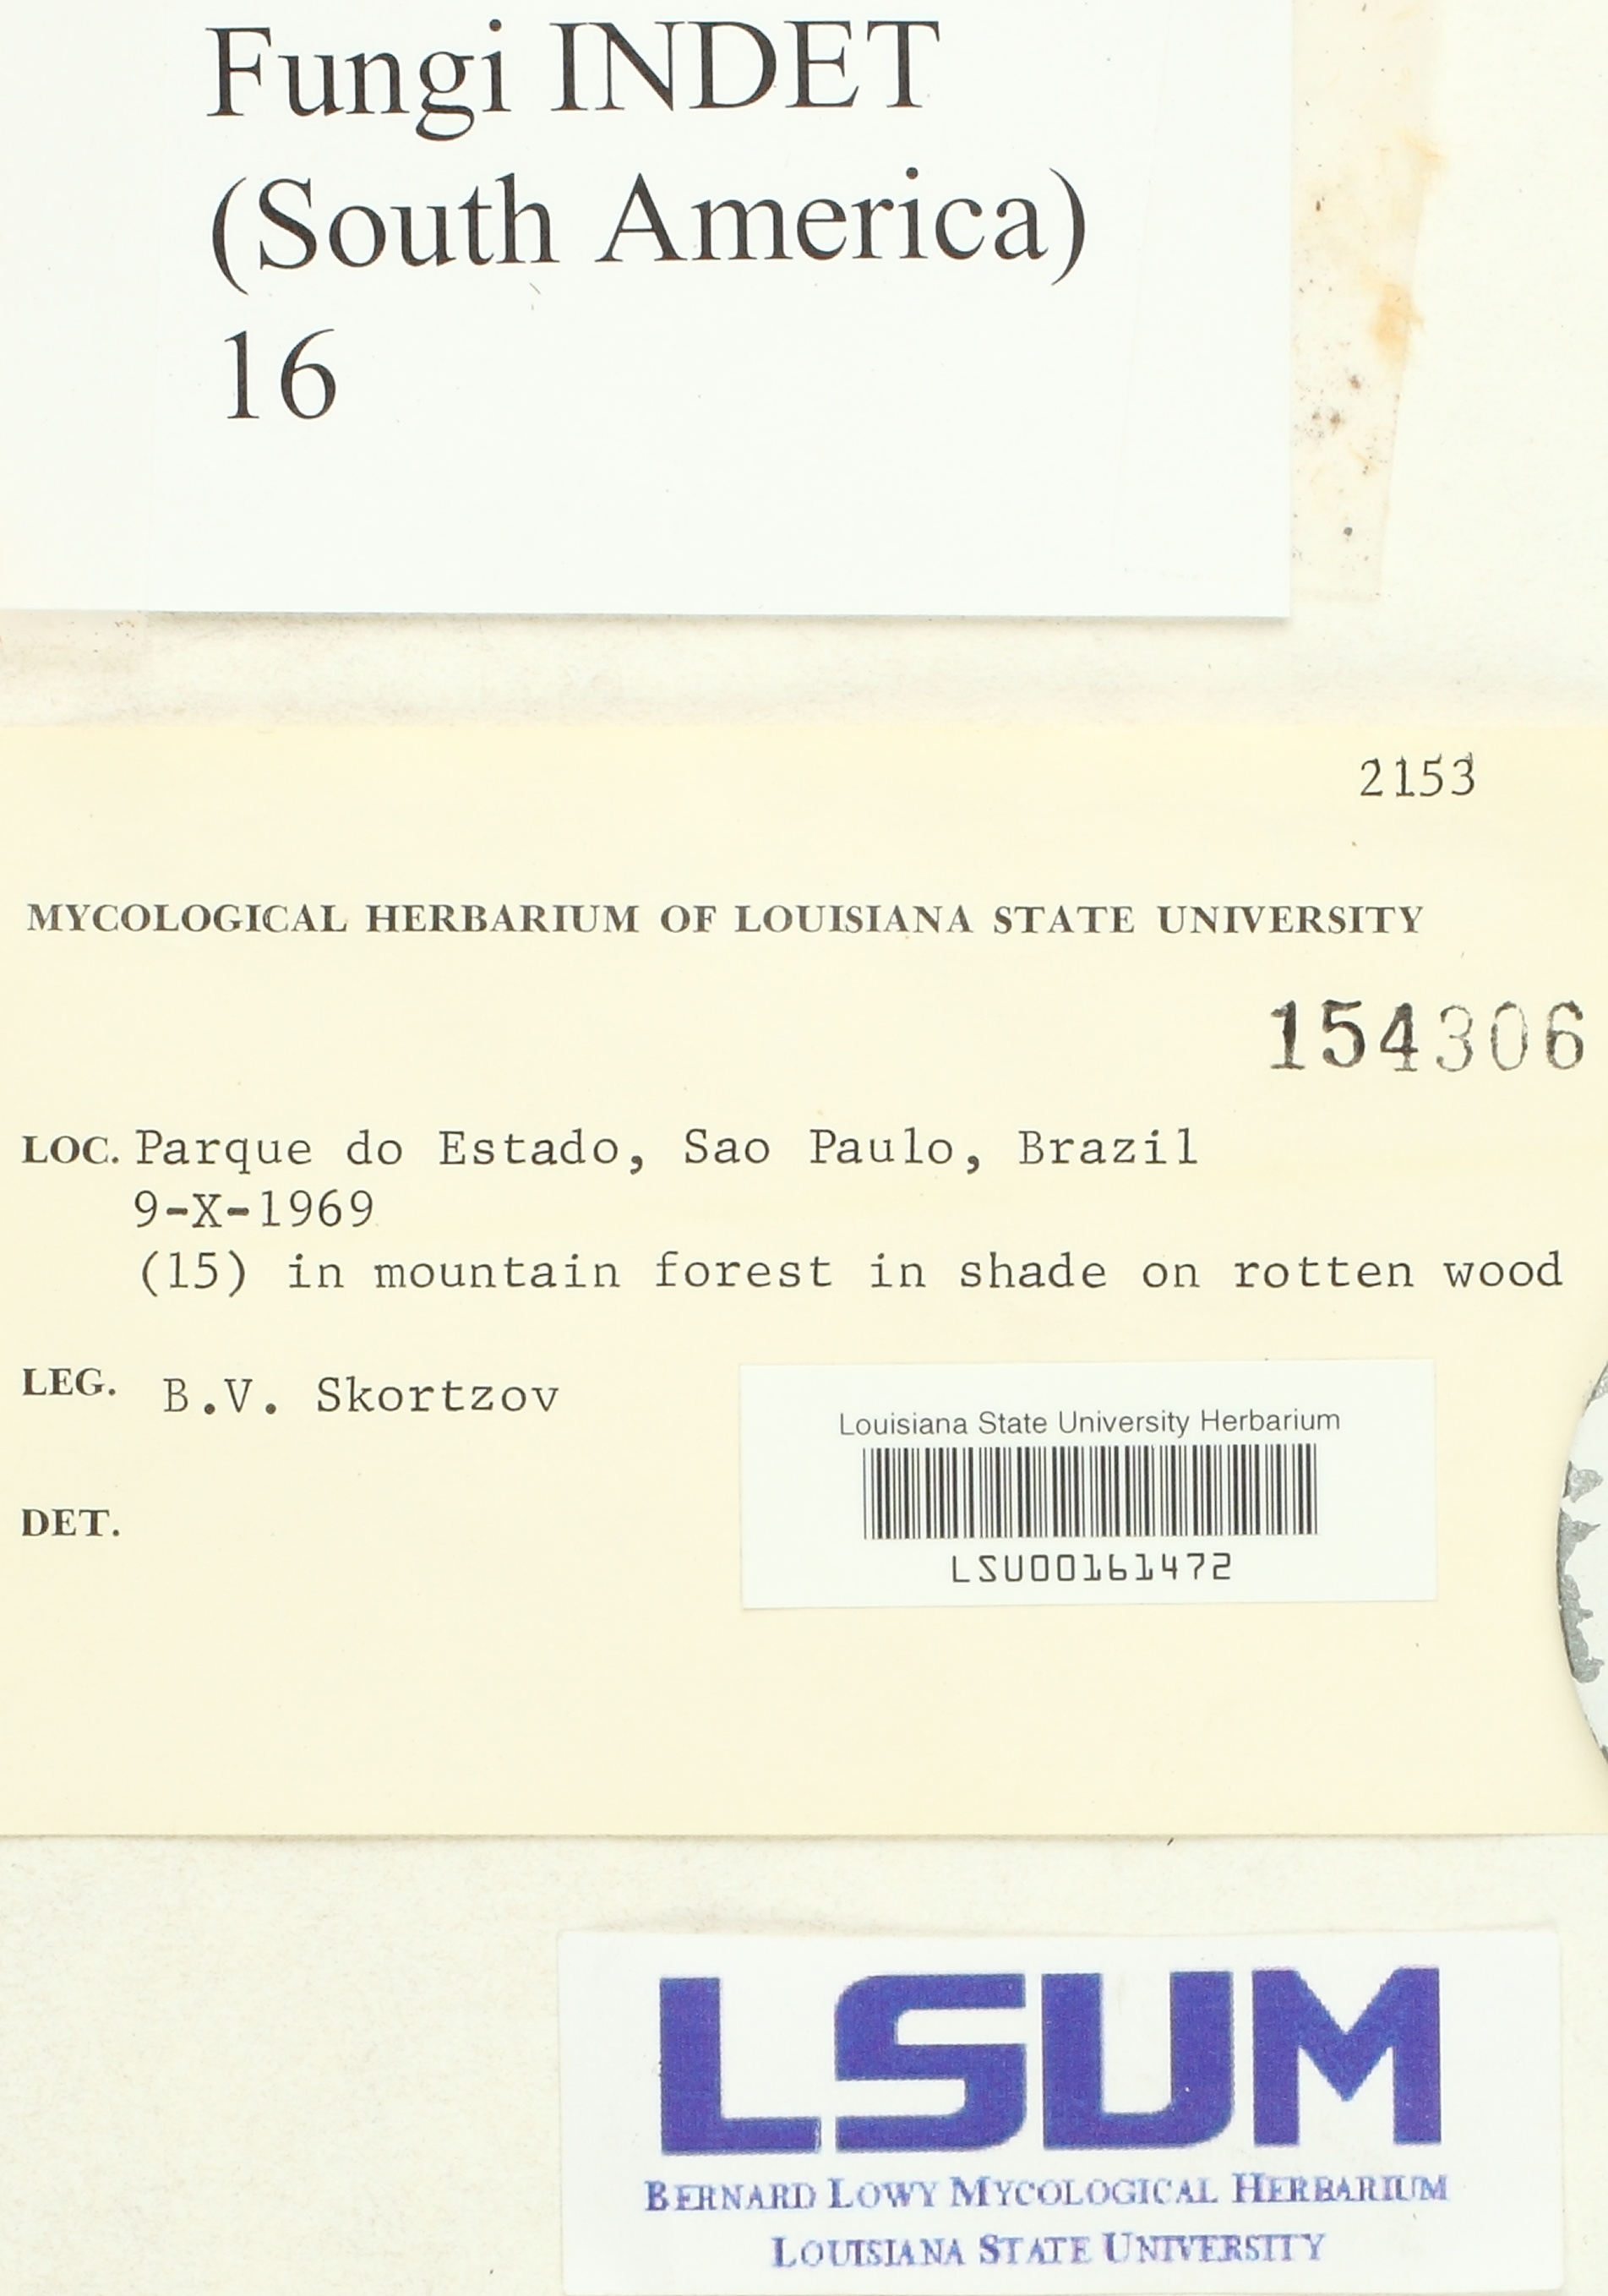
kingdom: Fungi
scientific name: Fungi
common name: Fungi
